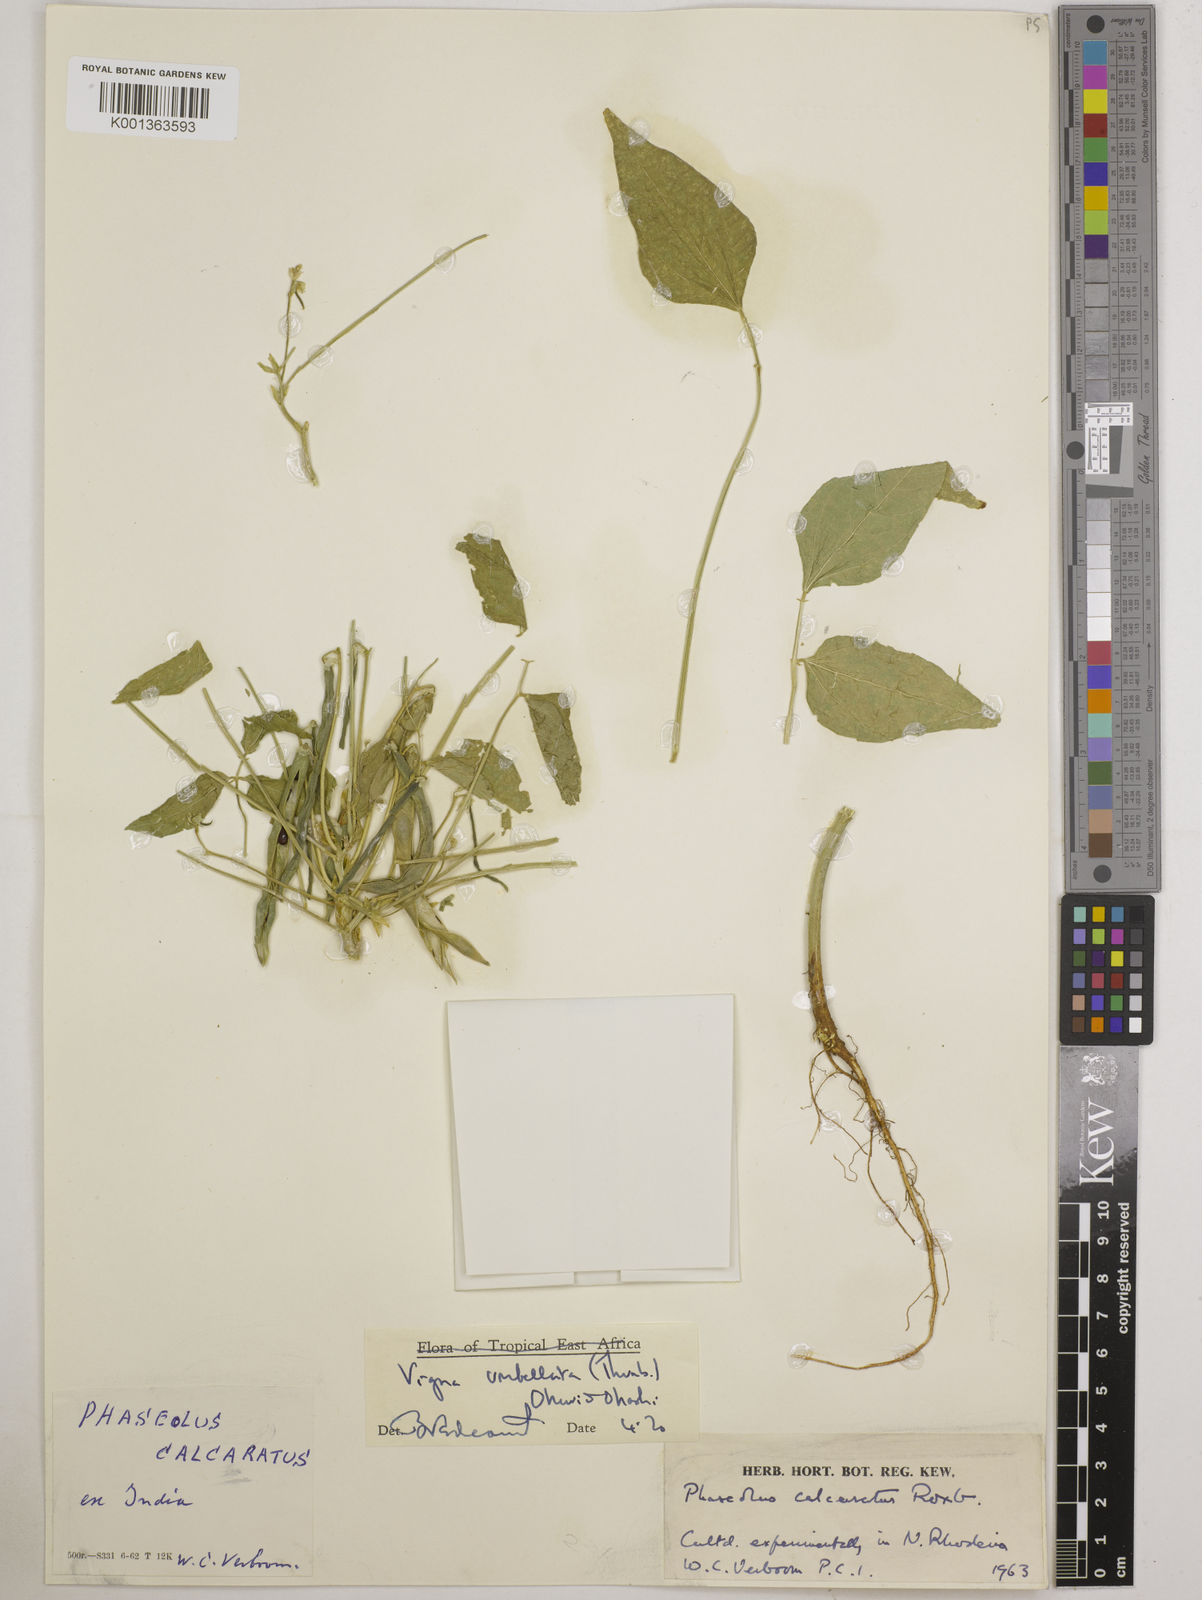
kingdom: Plantae
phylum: Tracheophyta
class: Magnoliopsida
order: Fabales
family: Fabaceae
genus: Vigna
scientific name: Vigna umbellata
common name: Oriental-bean
